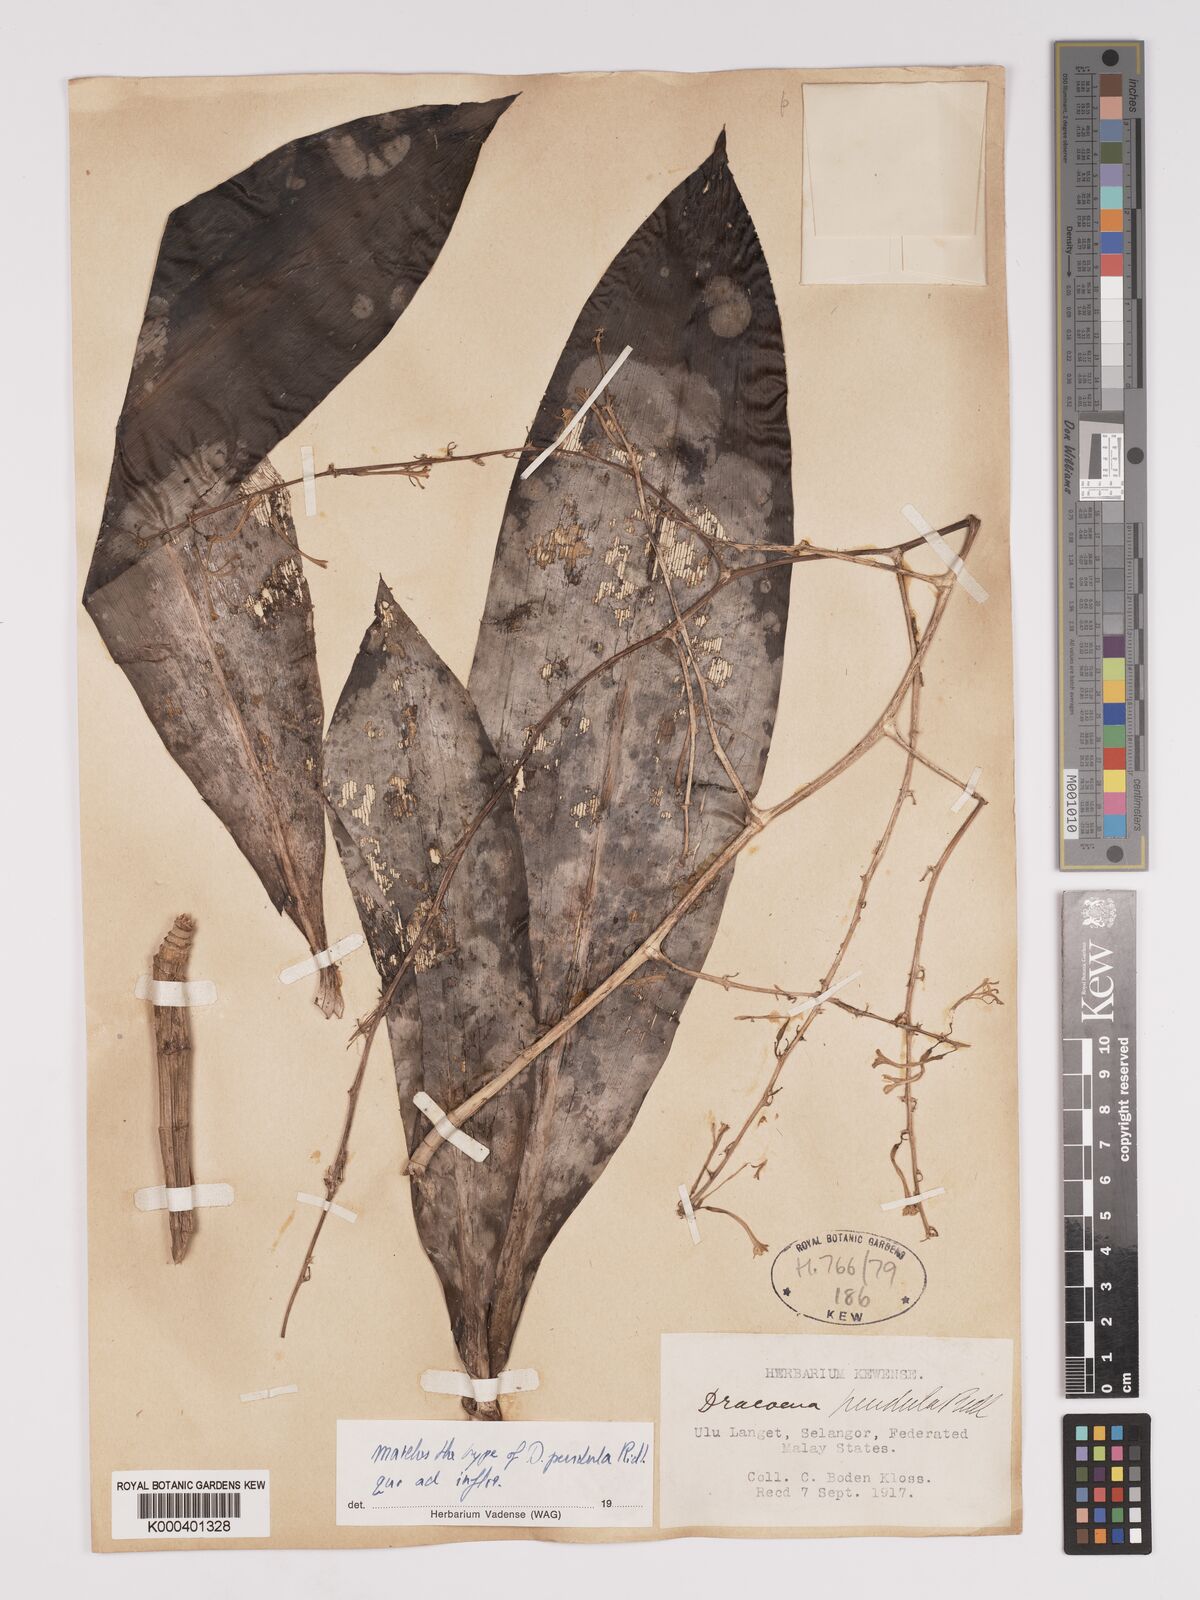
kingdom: Plantae
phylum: Tracheophyta
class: Liliopsida
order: Asparagales
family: Asparagaceae
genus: Dracaena
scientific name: Dracaena pendula
